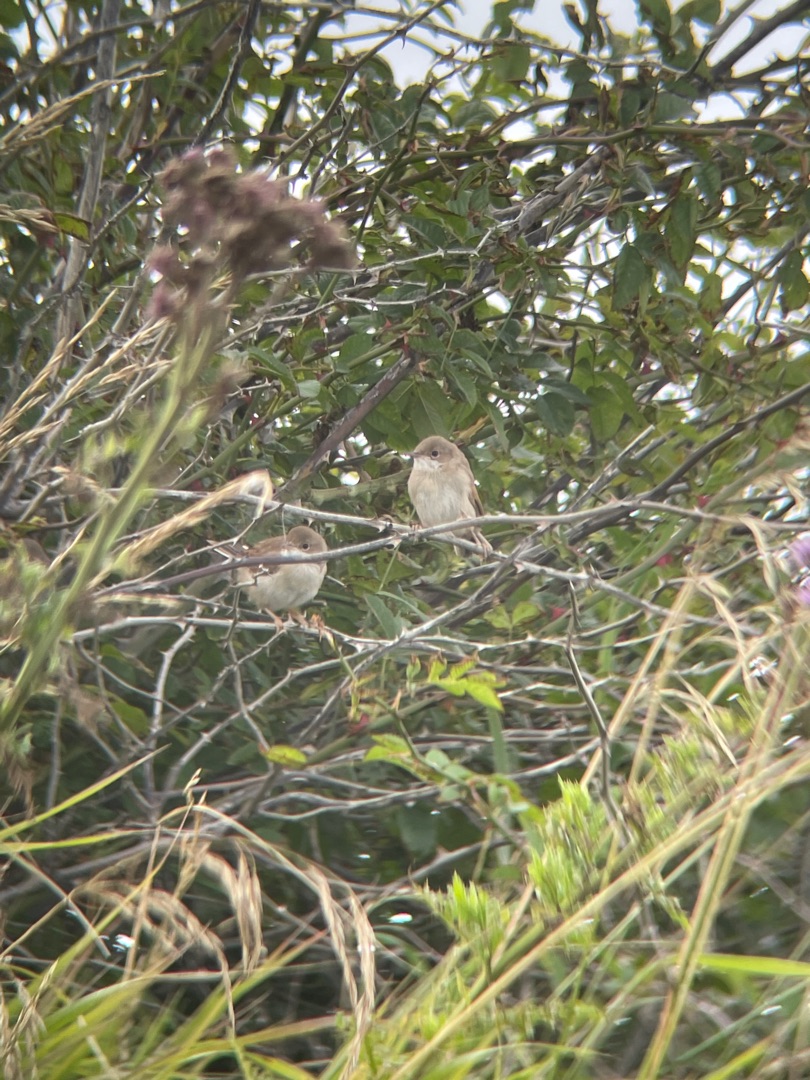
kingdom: Animalia
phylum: Chordata
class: Aves
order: Passeriformes
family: Sylviidae
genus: Sylvia
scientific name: Sylvia communis
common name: Tornsanger
